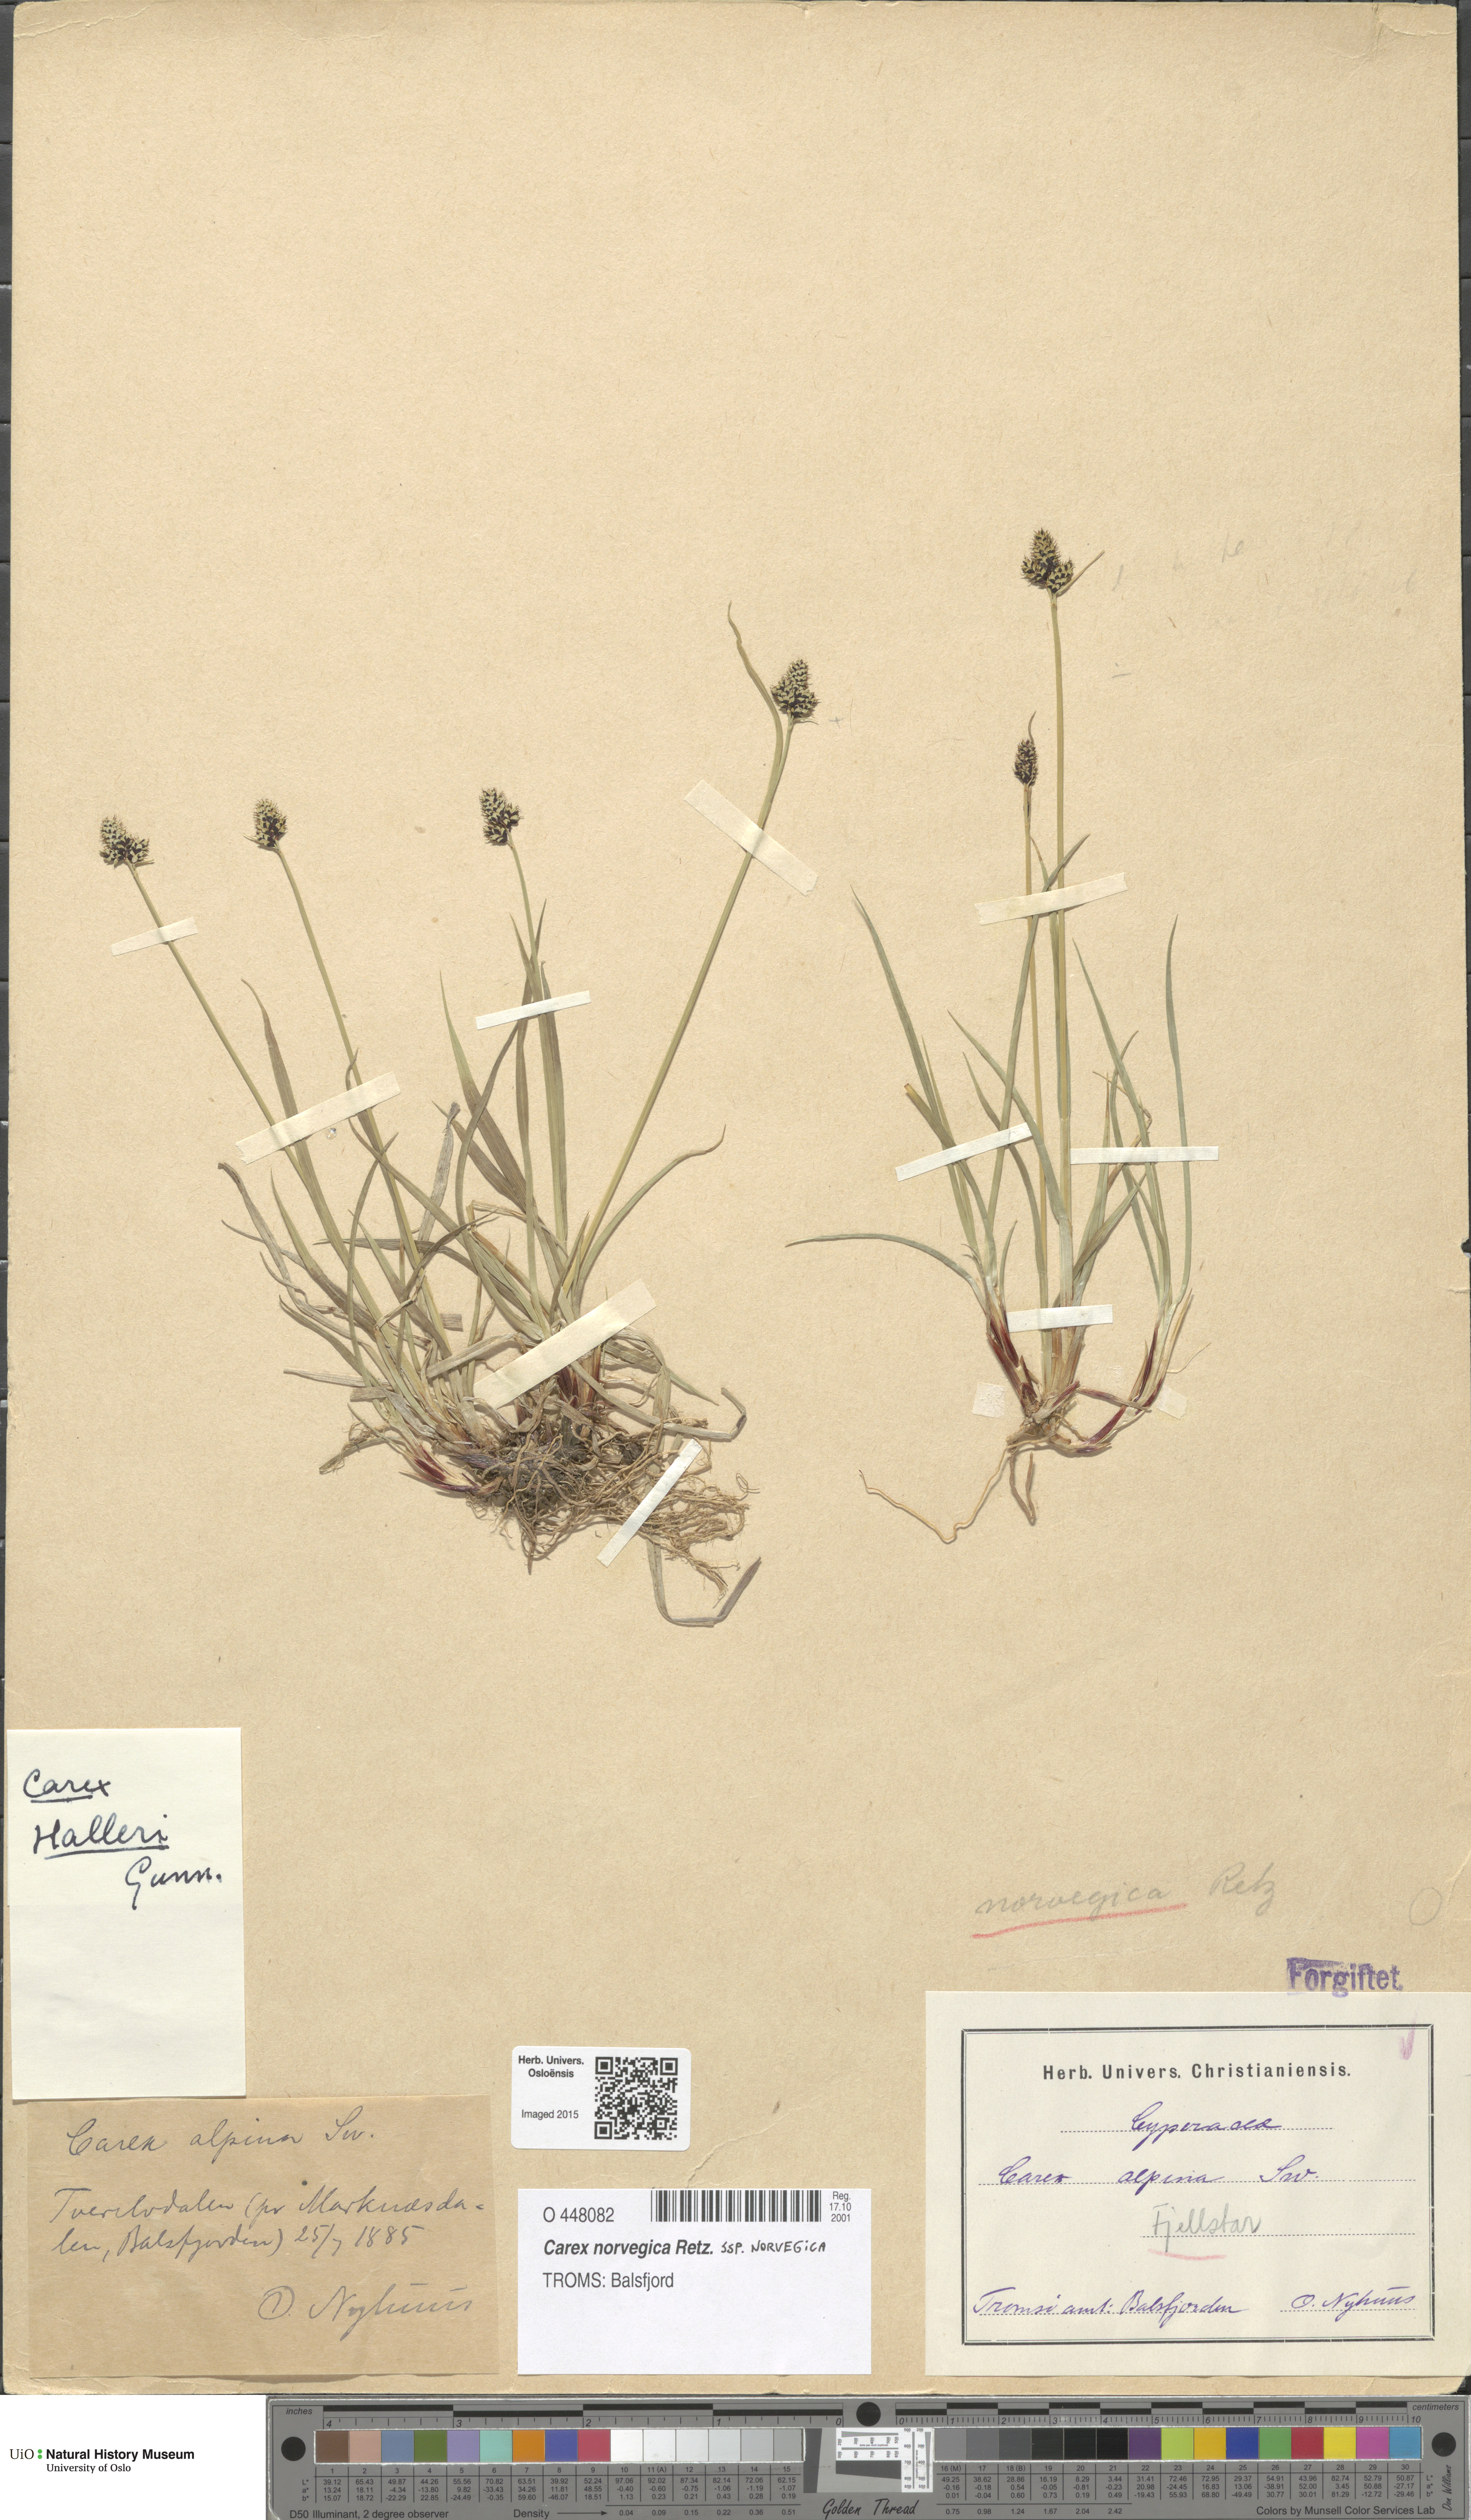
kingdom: Plantae
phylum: Tracheophyta
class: Liliopsida
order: Poales
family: Cyperaceae
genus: Carex
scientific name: Carex norvegica
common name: Close-headed alpine-sedge
